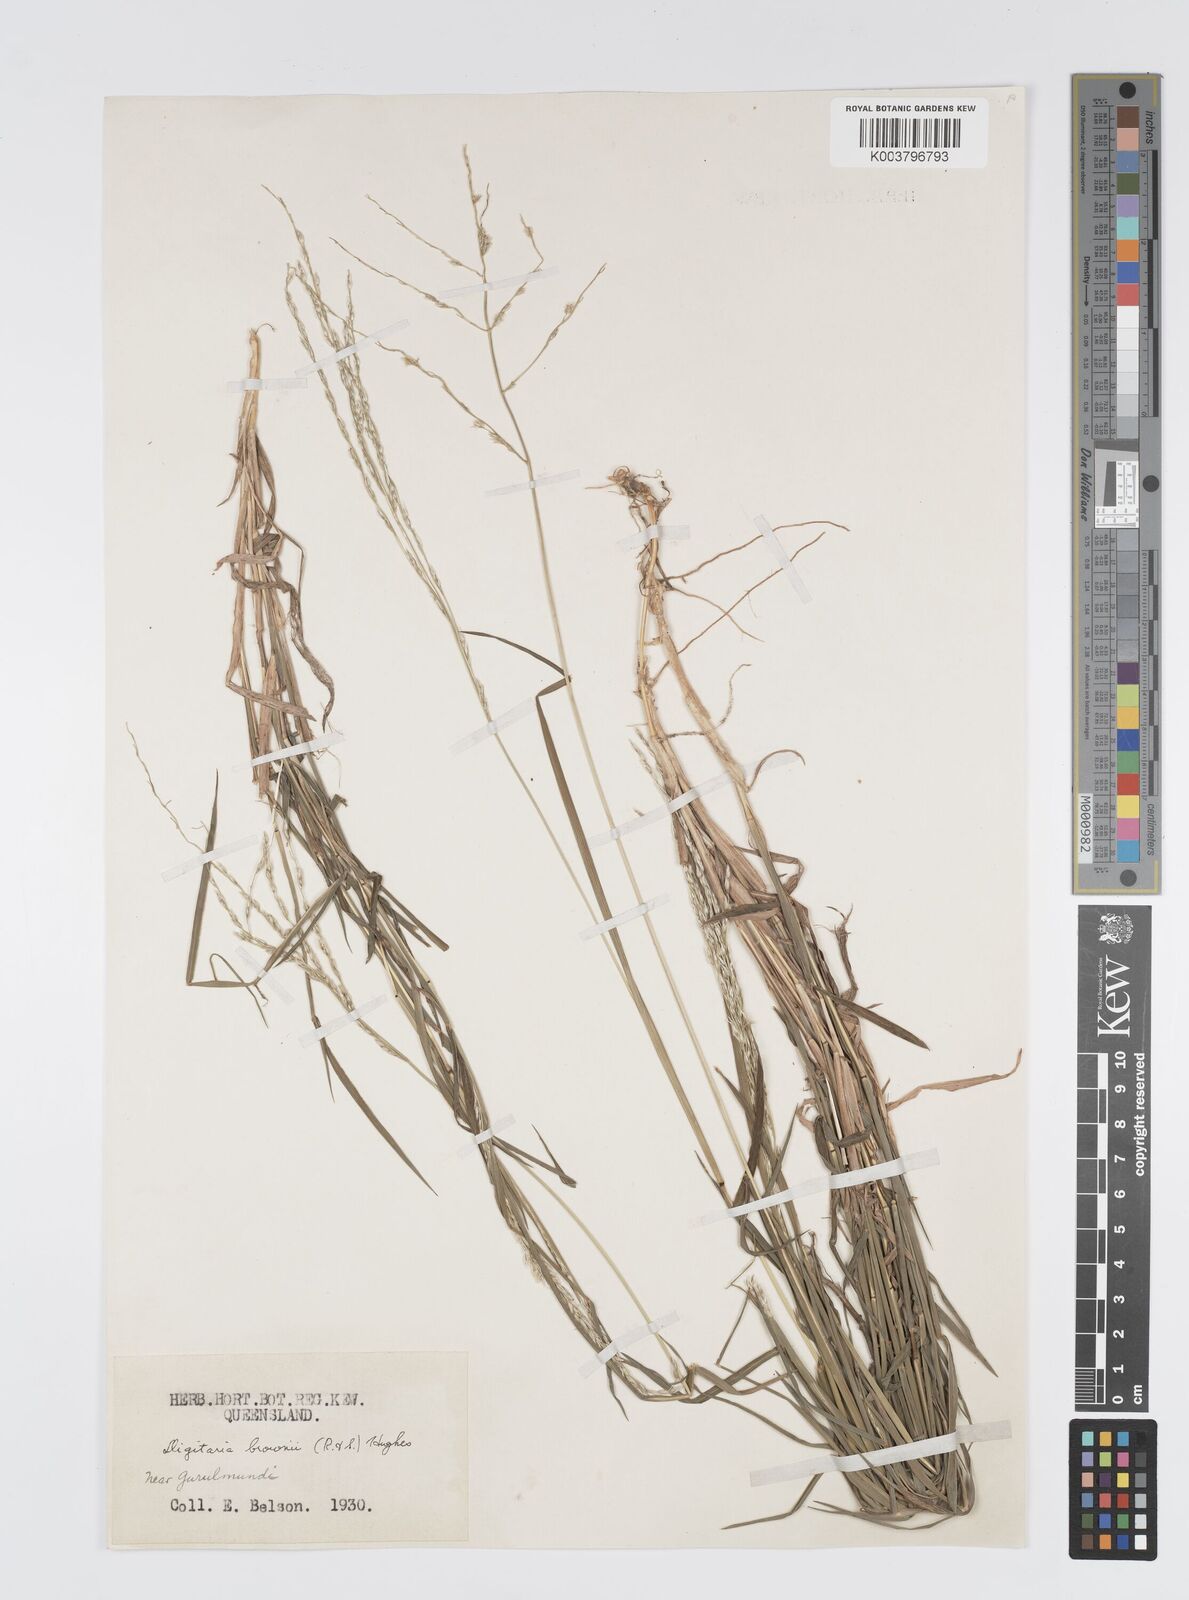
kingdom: Plantae
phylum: Tracheophyta
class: Liliopsida
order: Poales
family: Poaceae
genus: Digitaria
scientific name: Digitaria brownii
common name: Cotton grass
